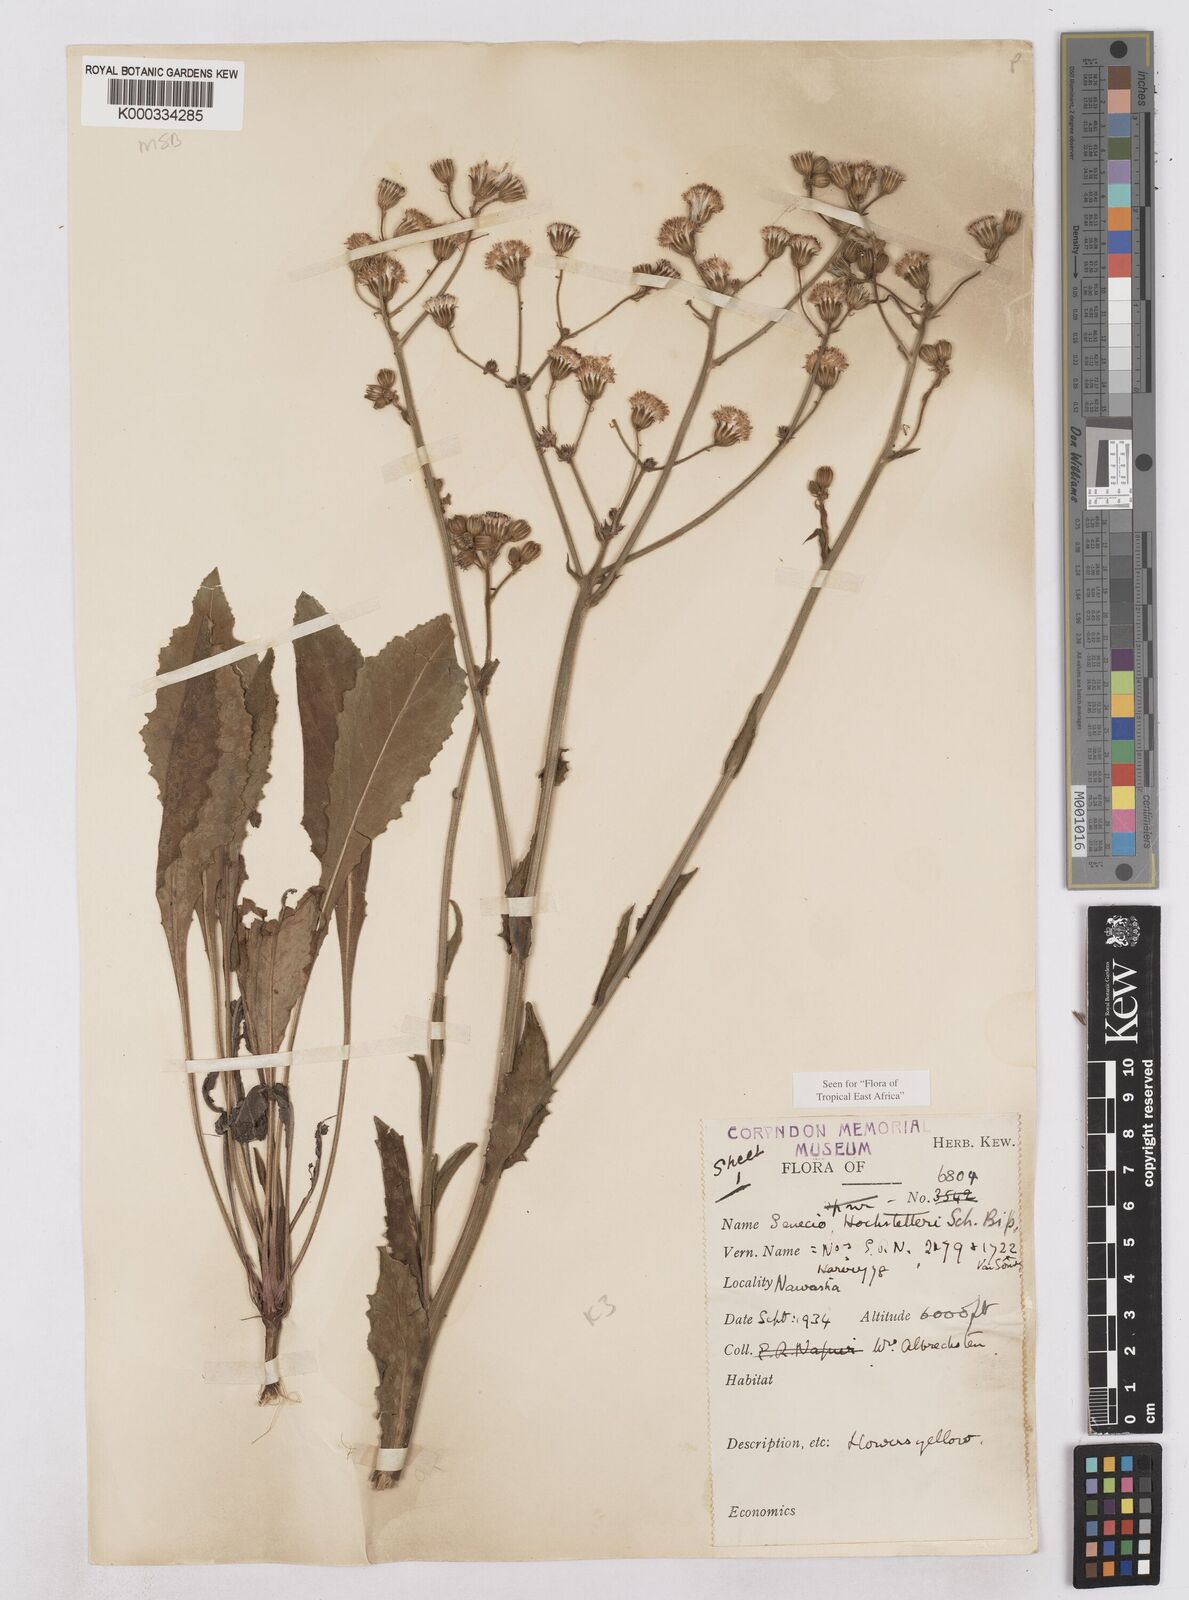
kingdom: Plantae
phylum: Tracheophyta
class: Magnoliopsida
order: Asterales
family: Asteraceae
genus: Senecio
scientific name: Senecio hochstetteri
